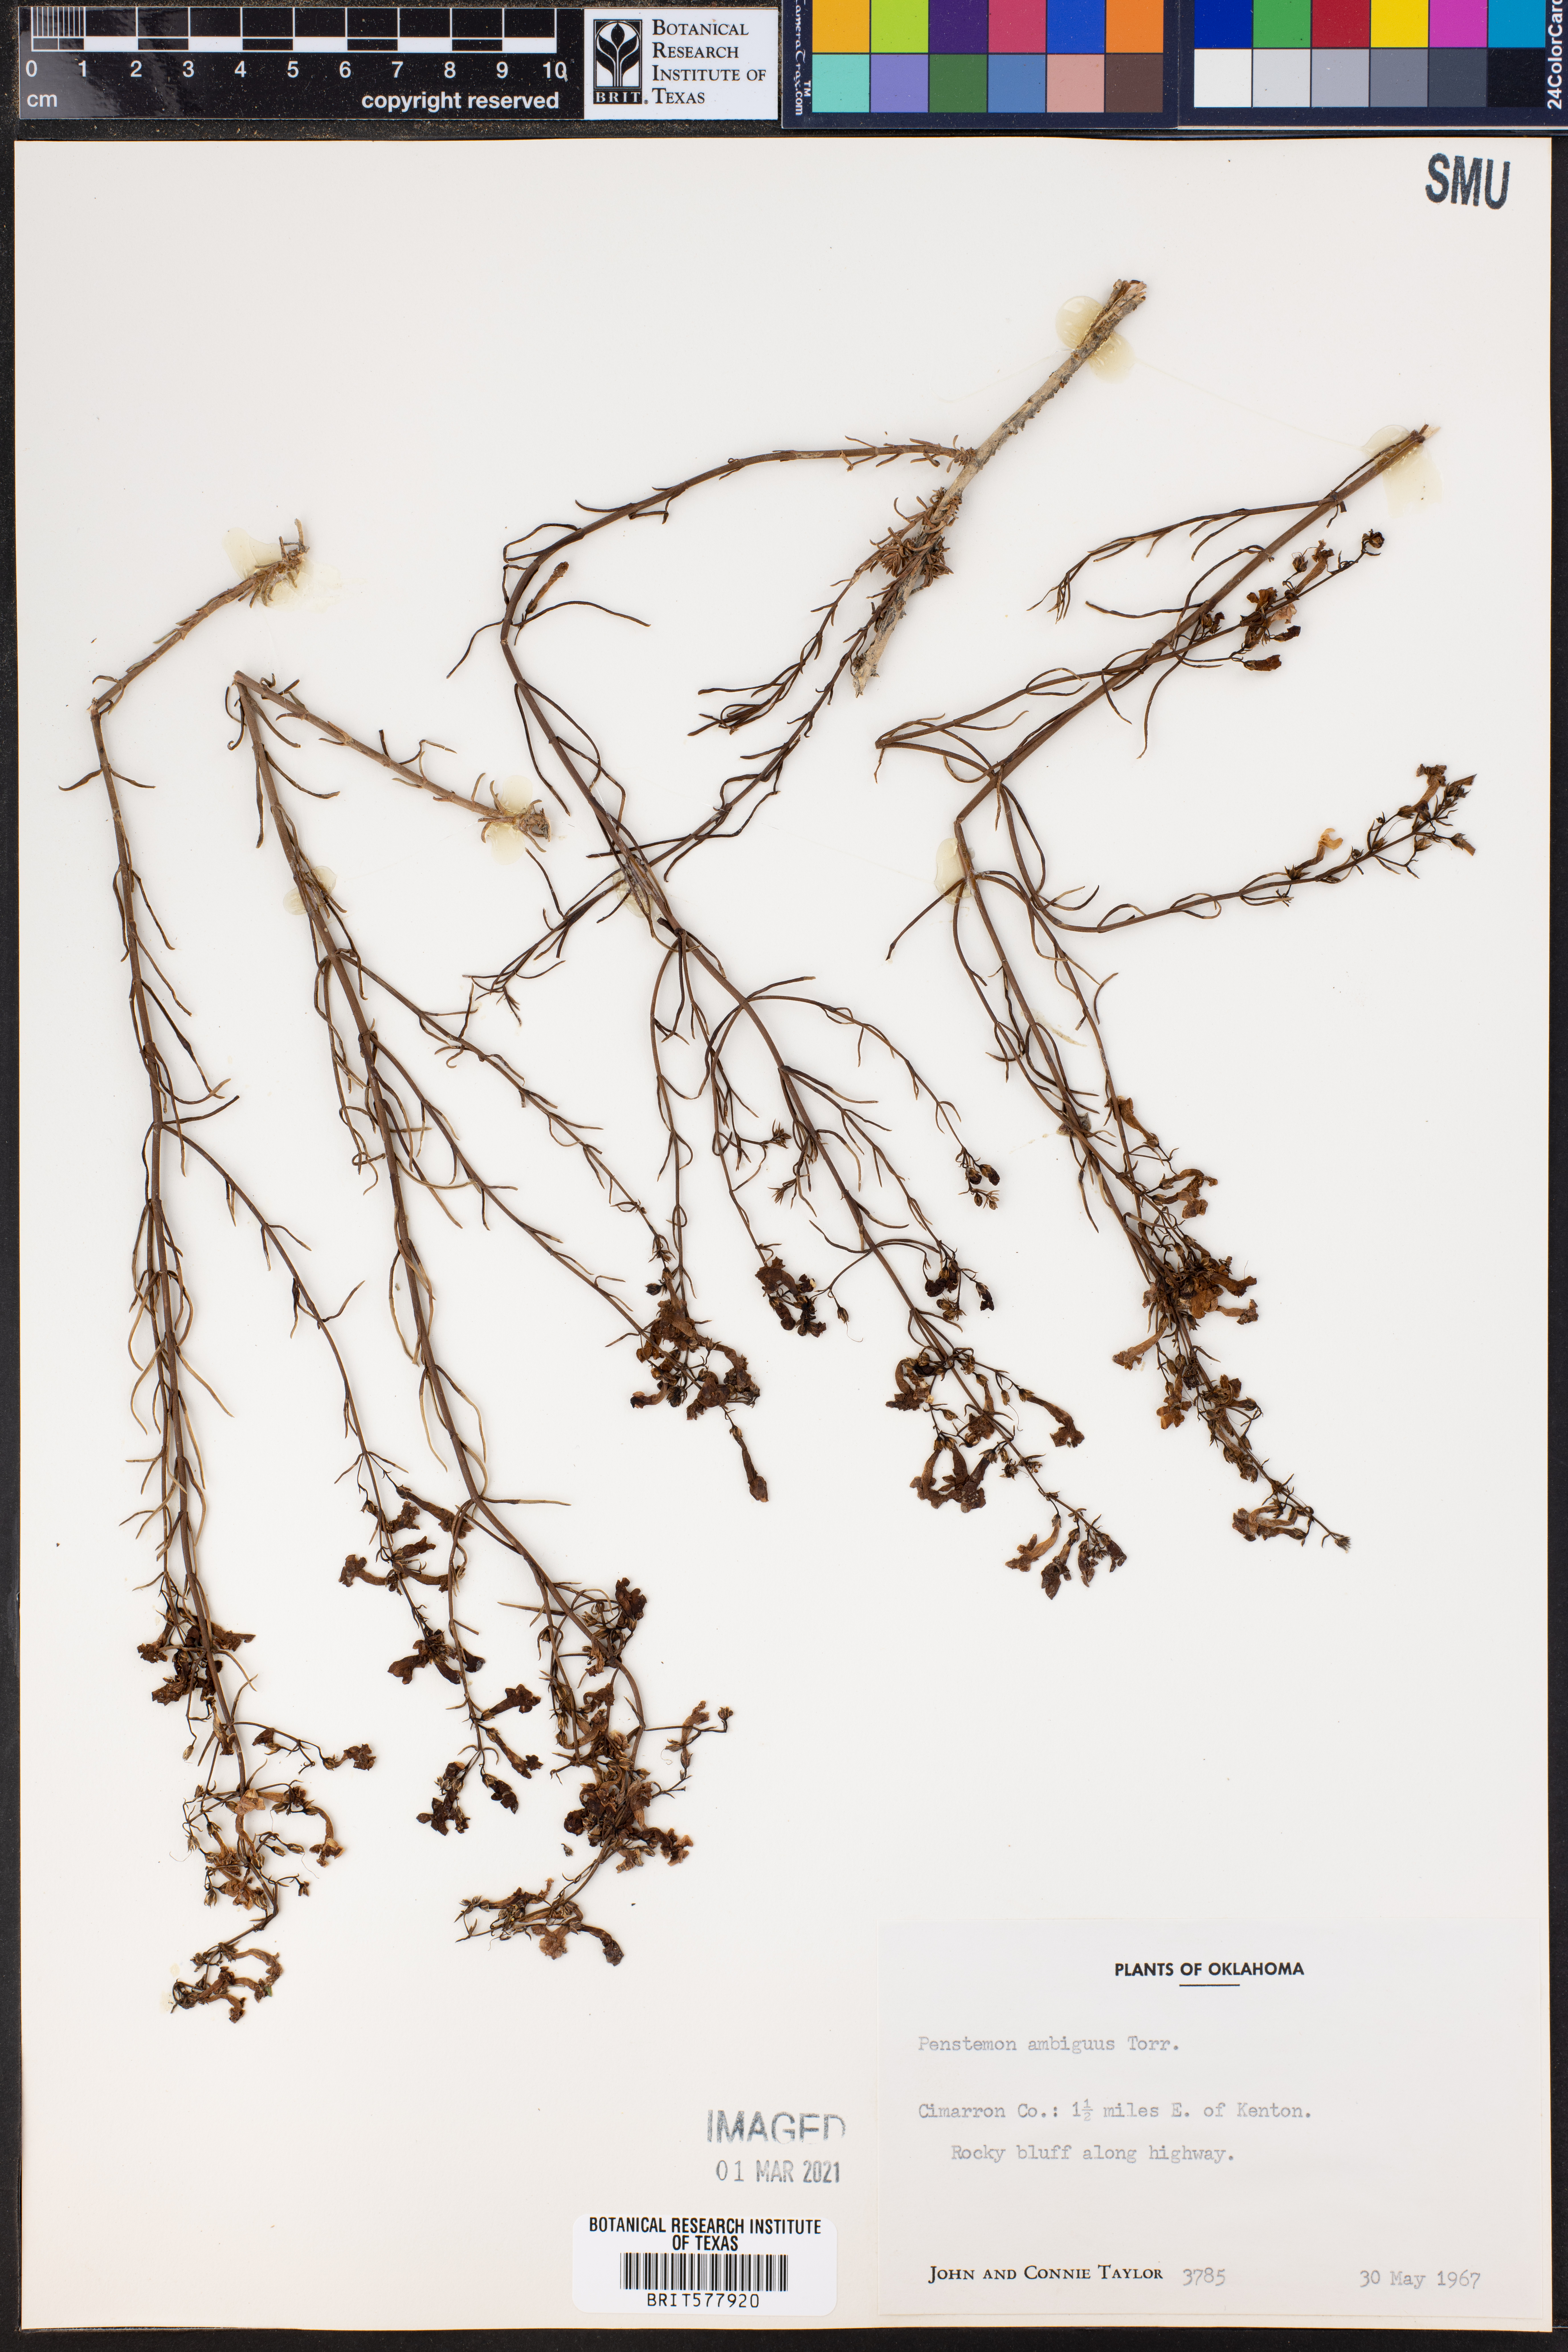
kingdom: Plantae
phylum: Tracheophyta
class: Magnoliopsida
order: Lamiales
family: Plantaginaceae
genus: Penstemon
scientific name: Penstemon ambiguus
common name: Bush penstemon
